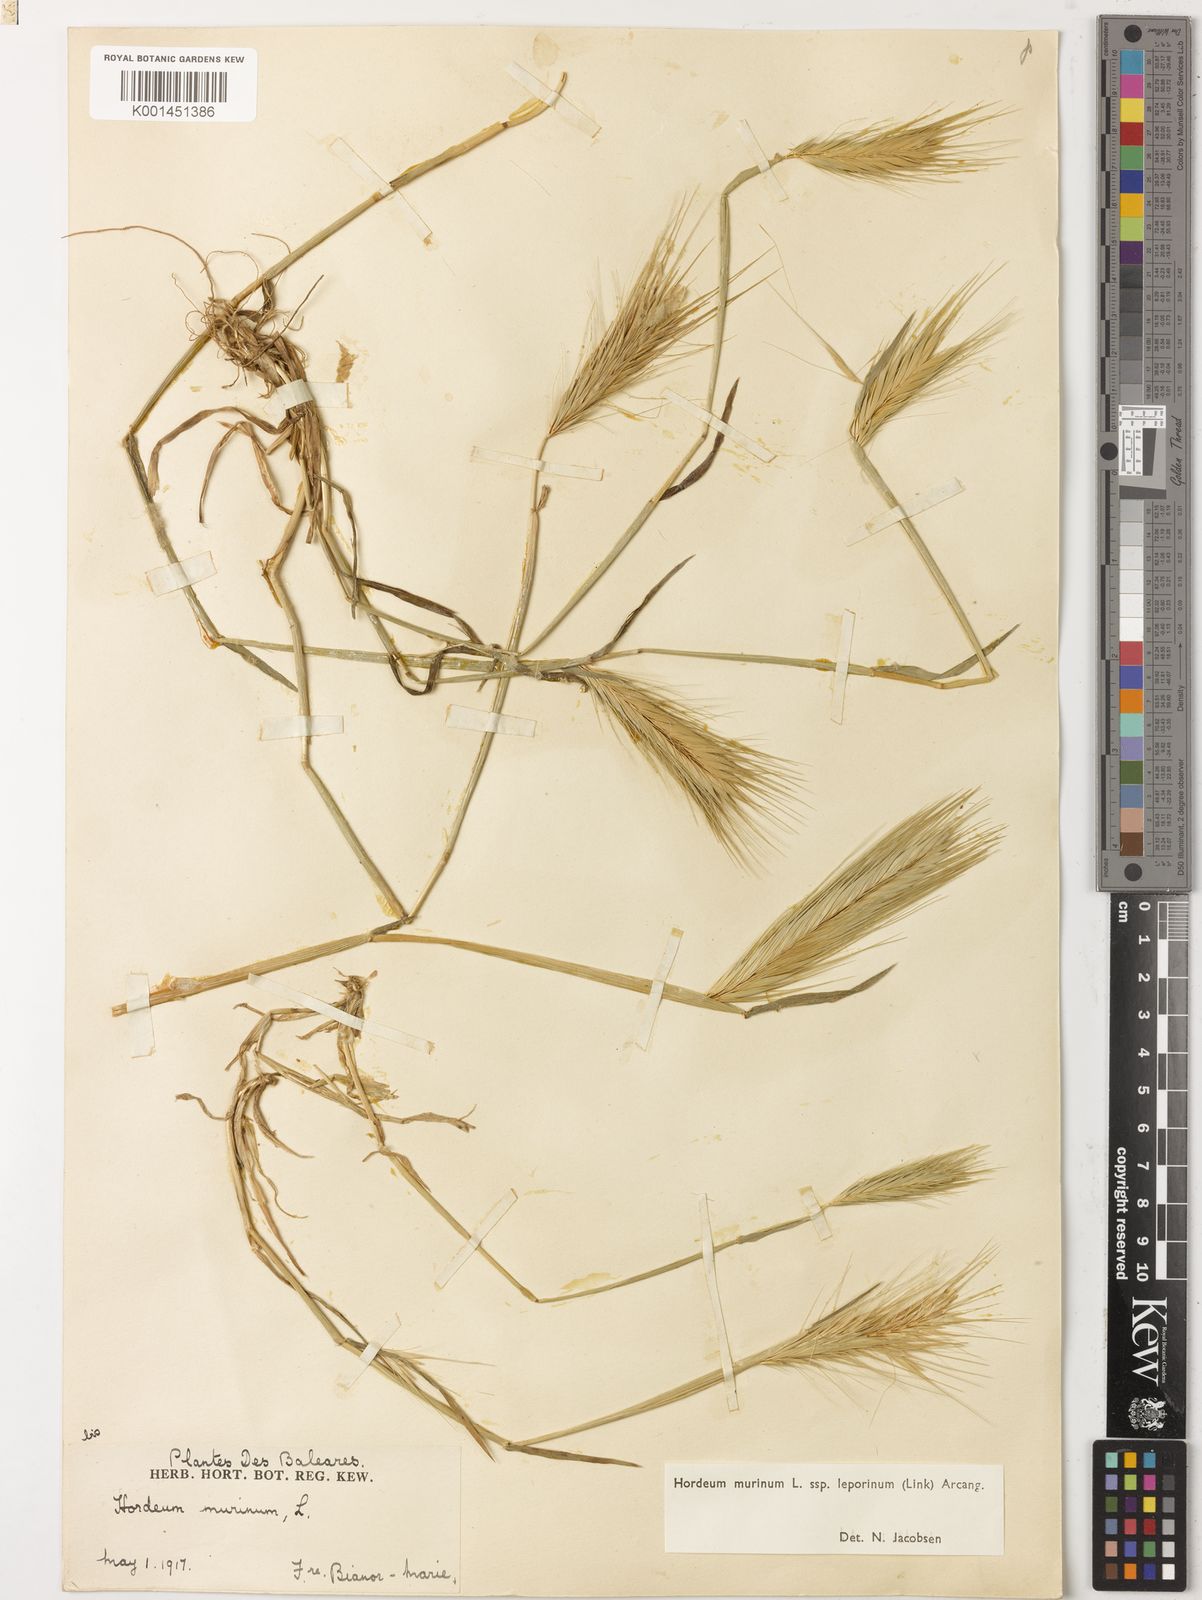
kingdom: Plantae
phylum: Tracheophyta
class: Liliopsida
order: Poales
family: Poaceae
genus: Hordeum
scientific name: Hordeum murinum
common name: Wall barley
